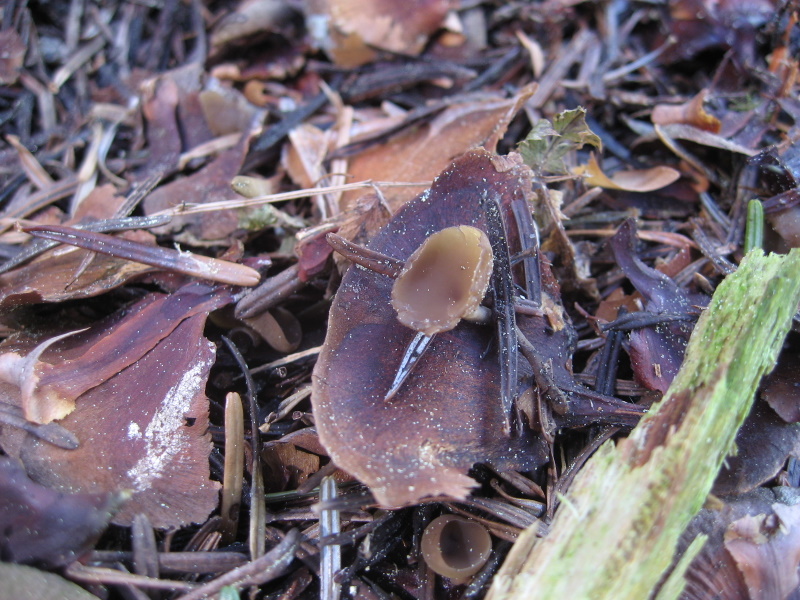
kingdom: Fungi
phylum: Ascomycota
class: Leotiomycetes
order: Helotiales
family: Sclerotiniaceae
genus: Ciboria
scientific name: Ciboria rufofusca
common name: kogleskæl-knoldskive
